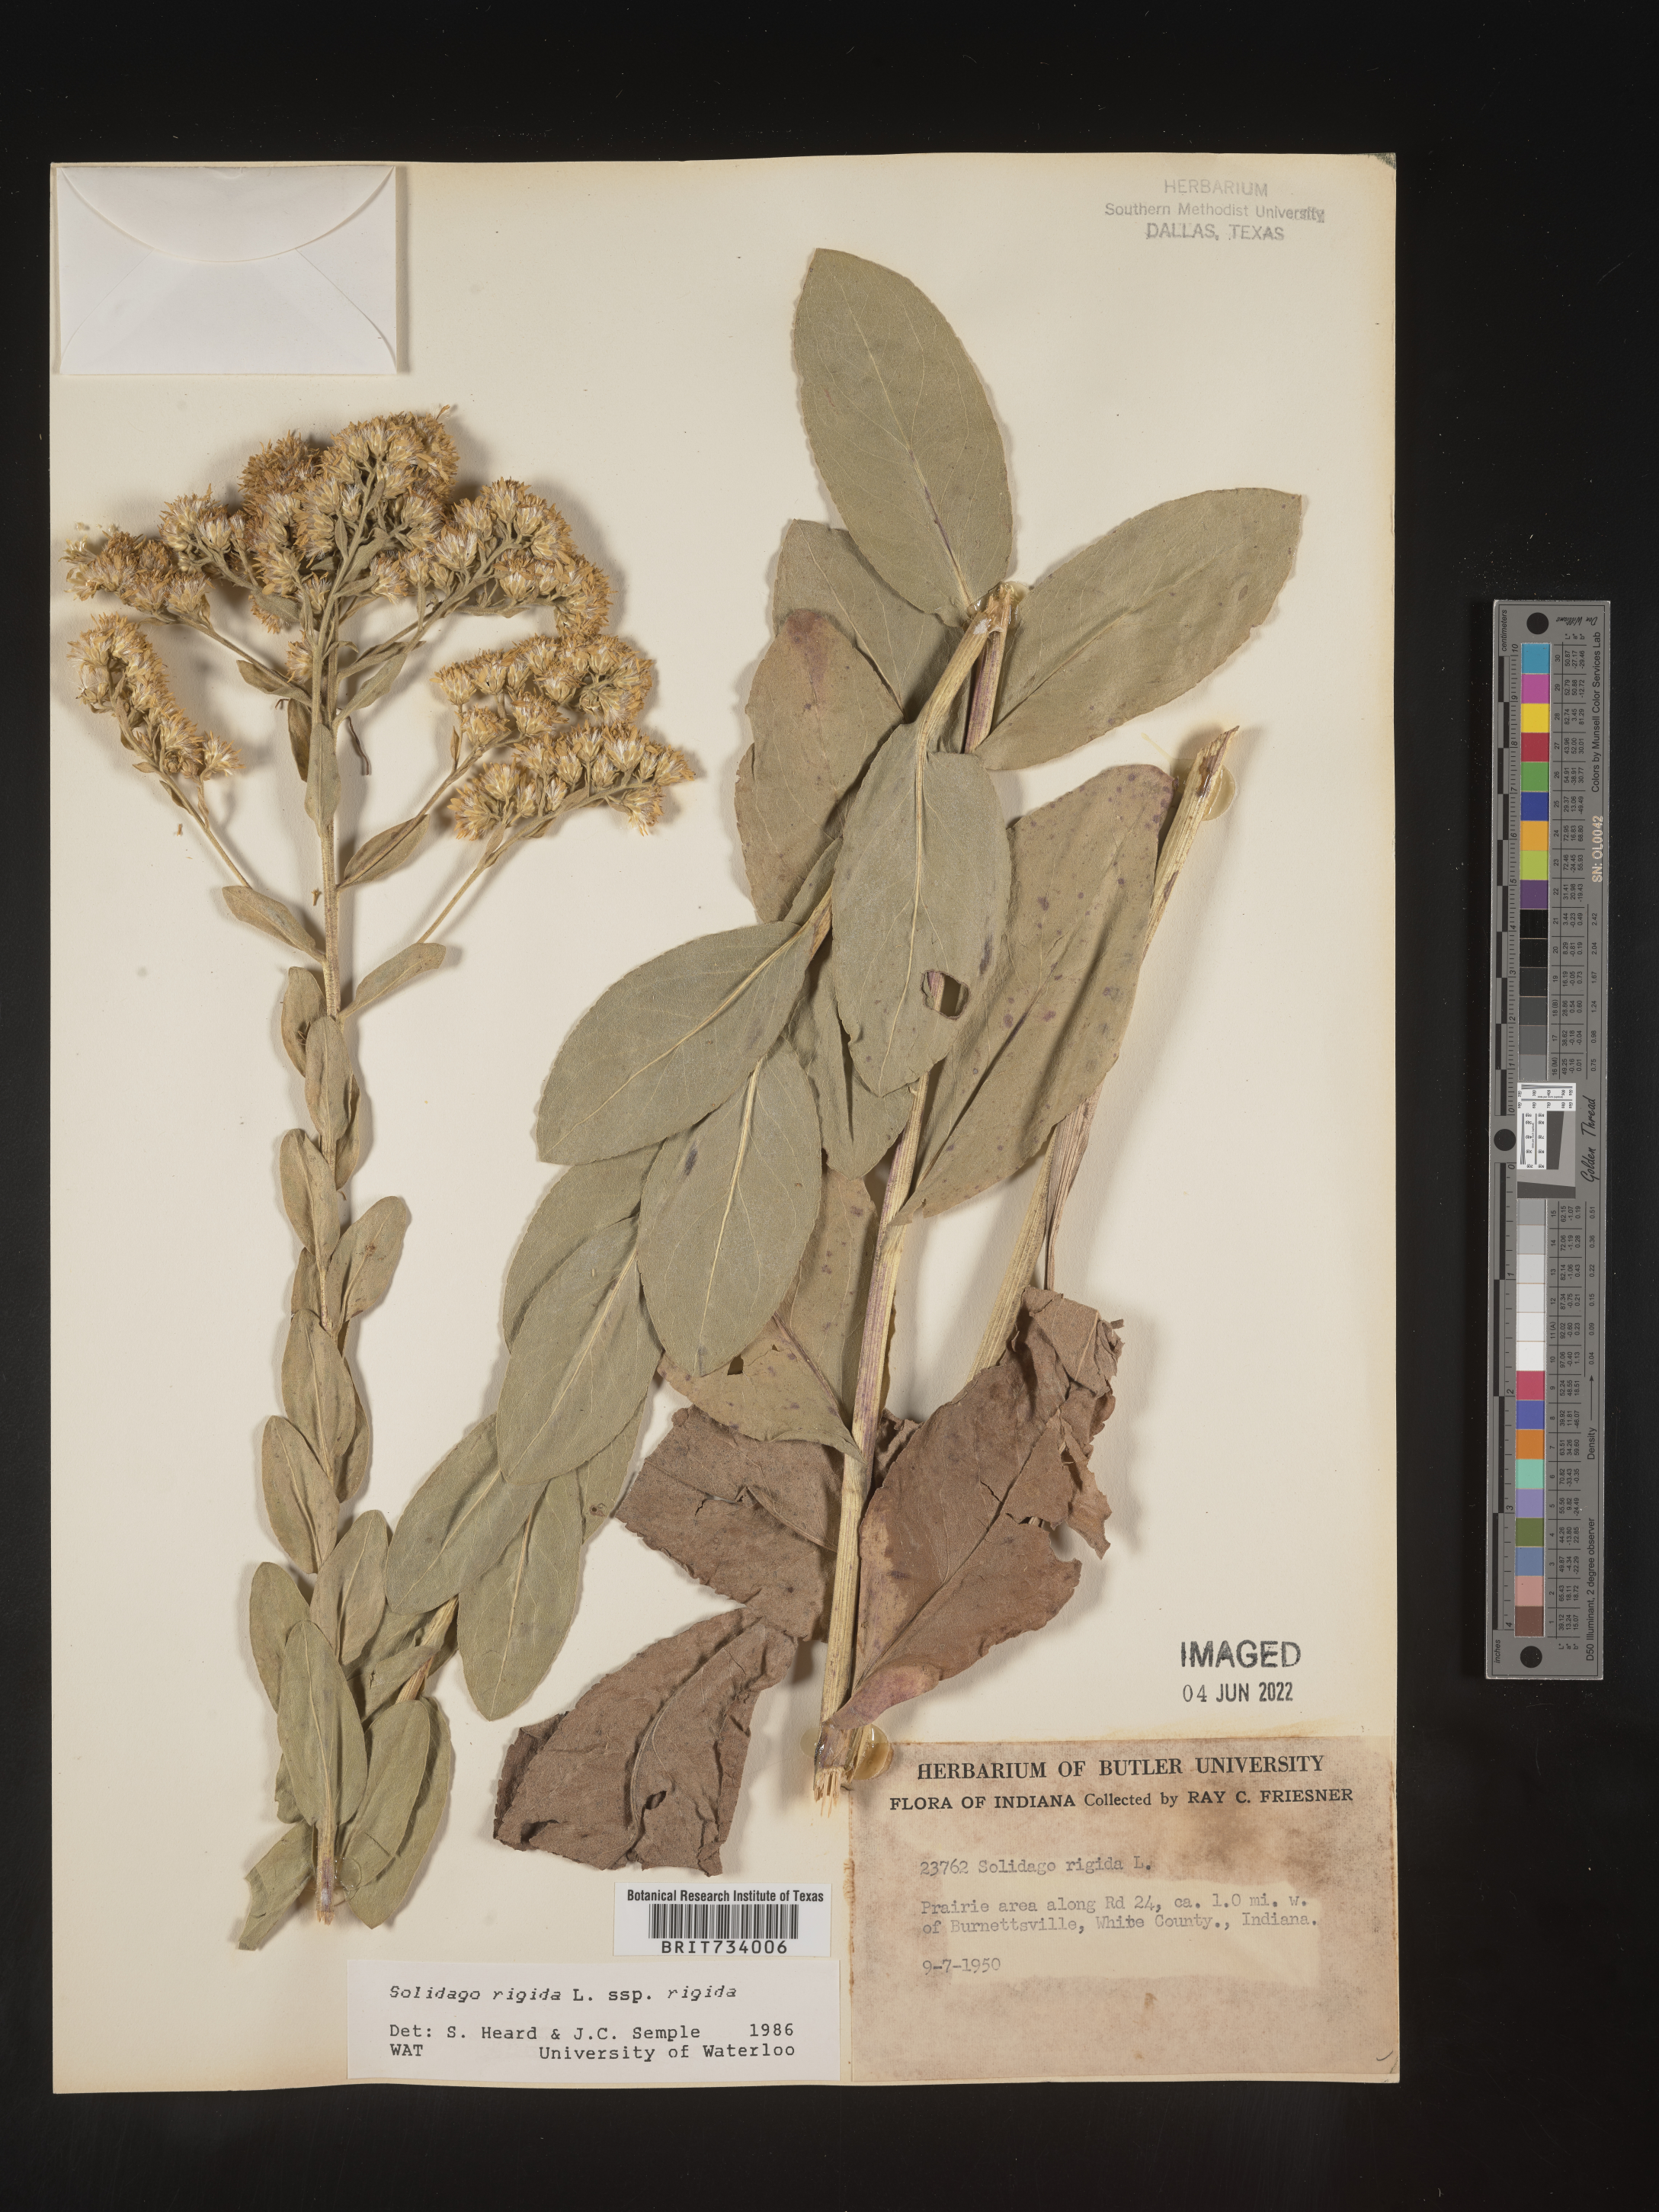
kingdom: Plantae
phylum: Tracheophyta
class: Magnoliopsida
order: Asterales
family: Asteraceae
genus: Solidago
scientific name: Solidago rigida
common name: Rigid goldenrod
